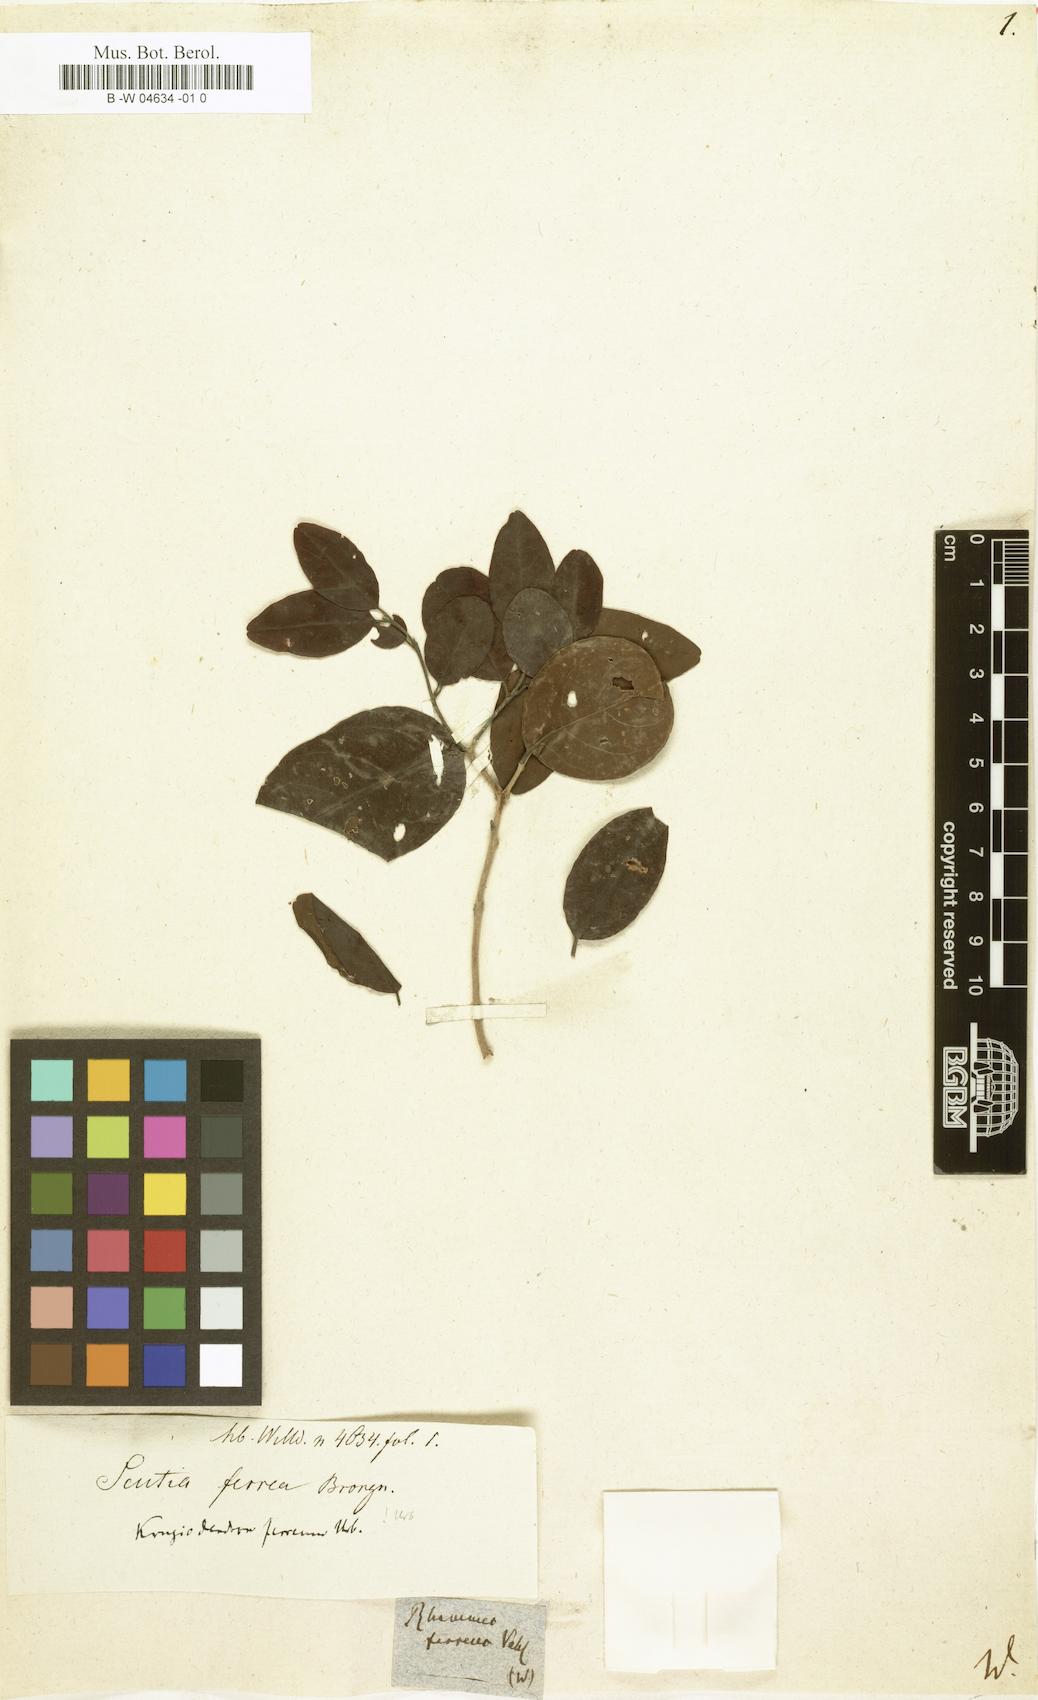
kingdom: Plantae
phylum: Tracheophyta
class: Magnoliopsida
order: Rosales
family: Rhamnaceae
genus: Krugiodendron
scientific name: Krugiodendron ferreum
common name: Iron wood
